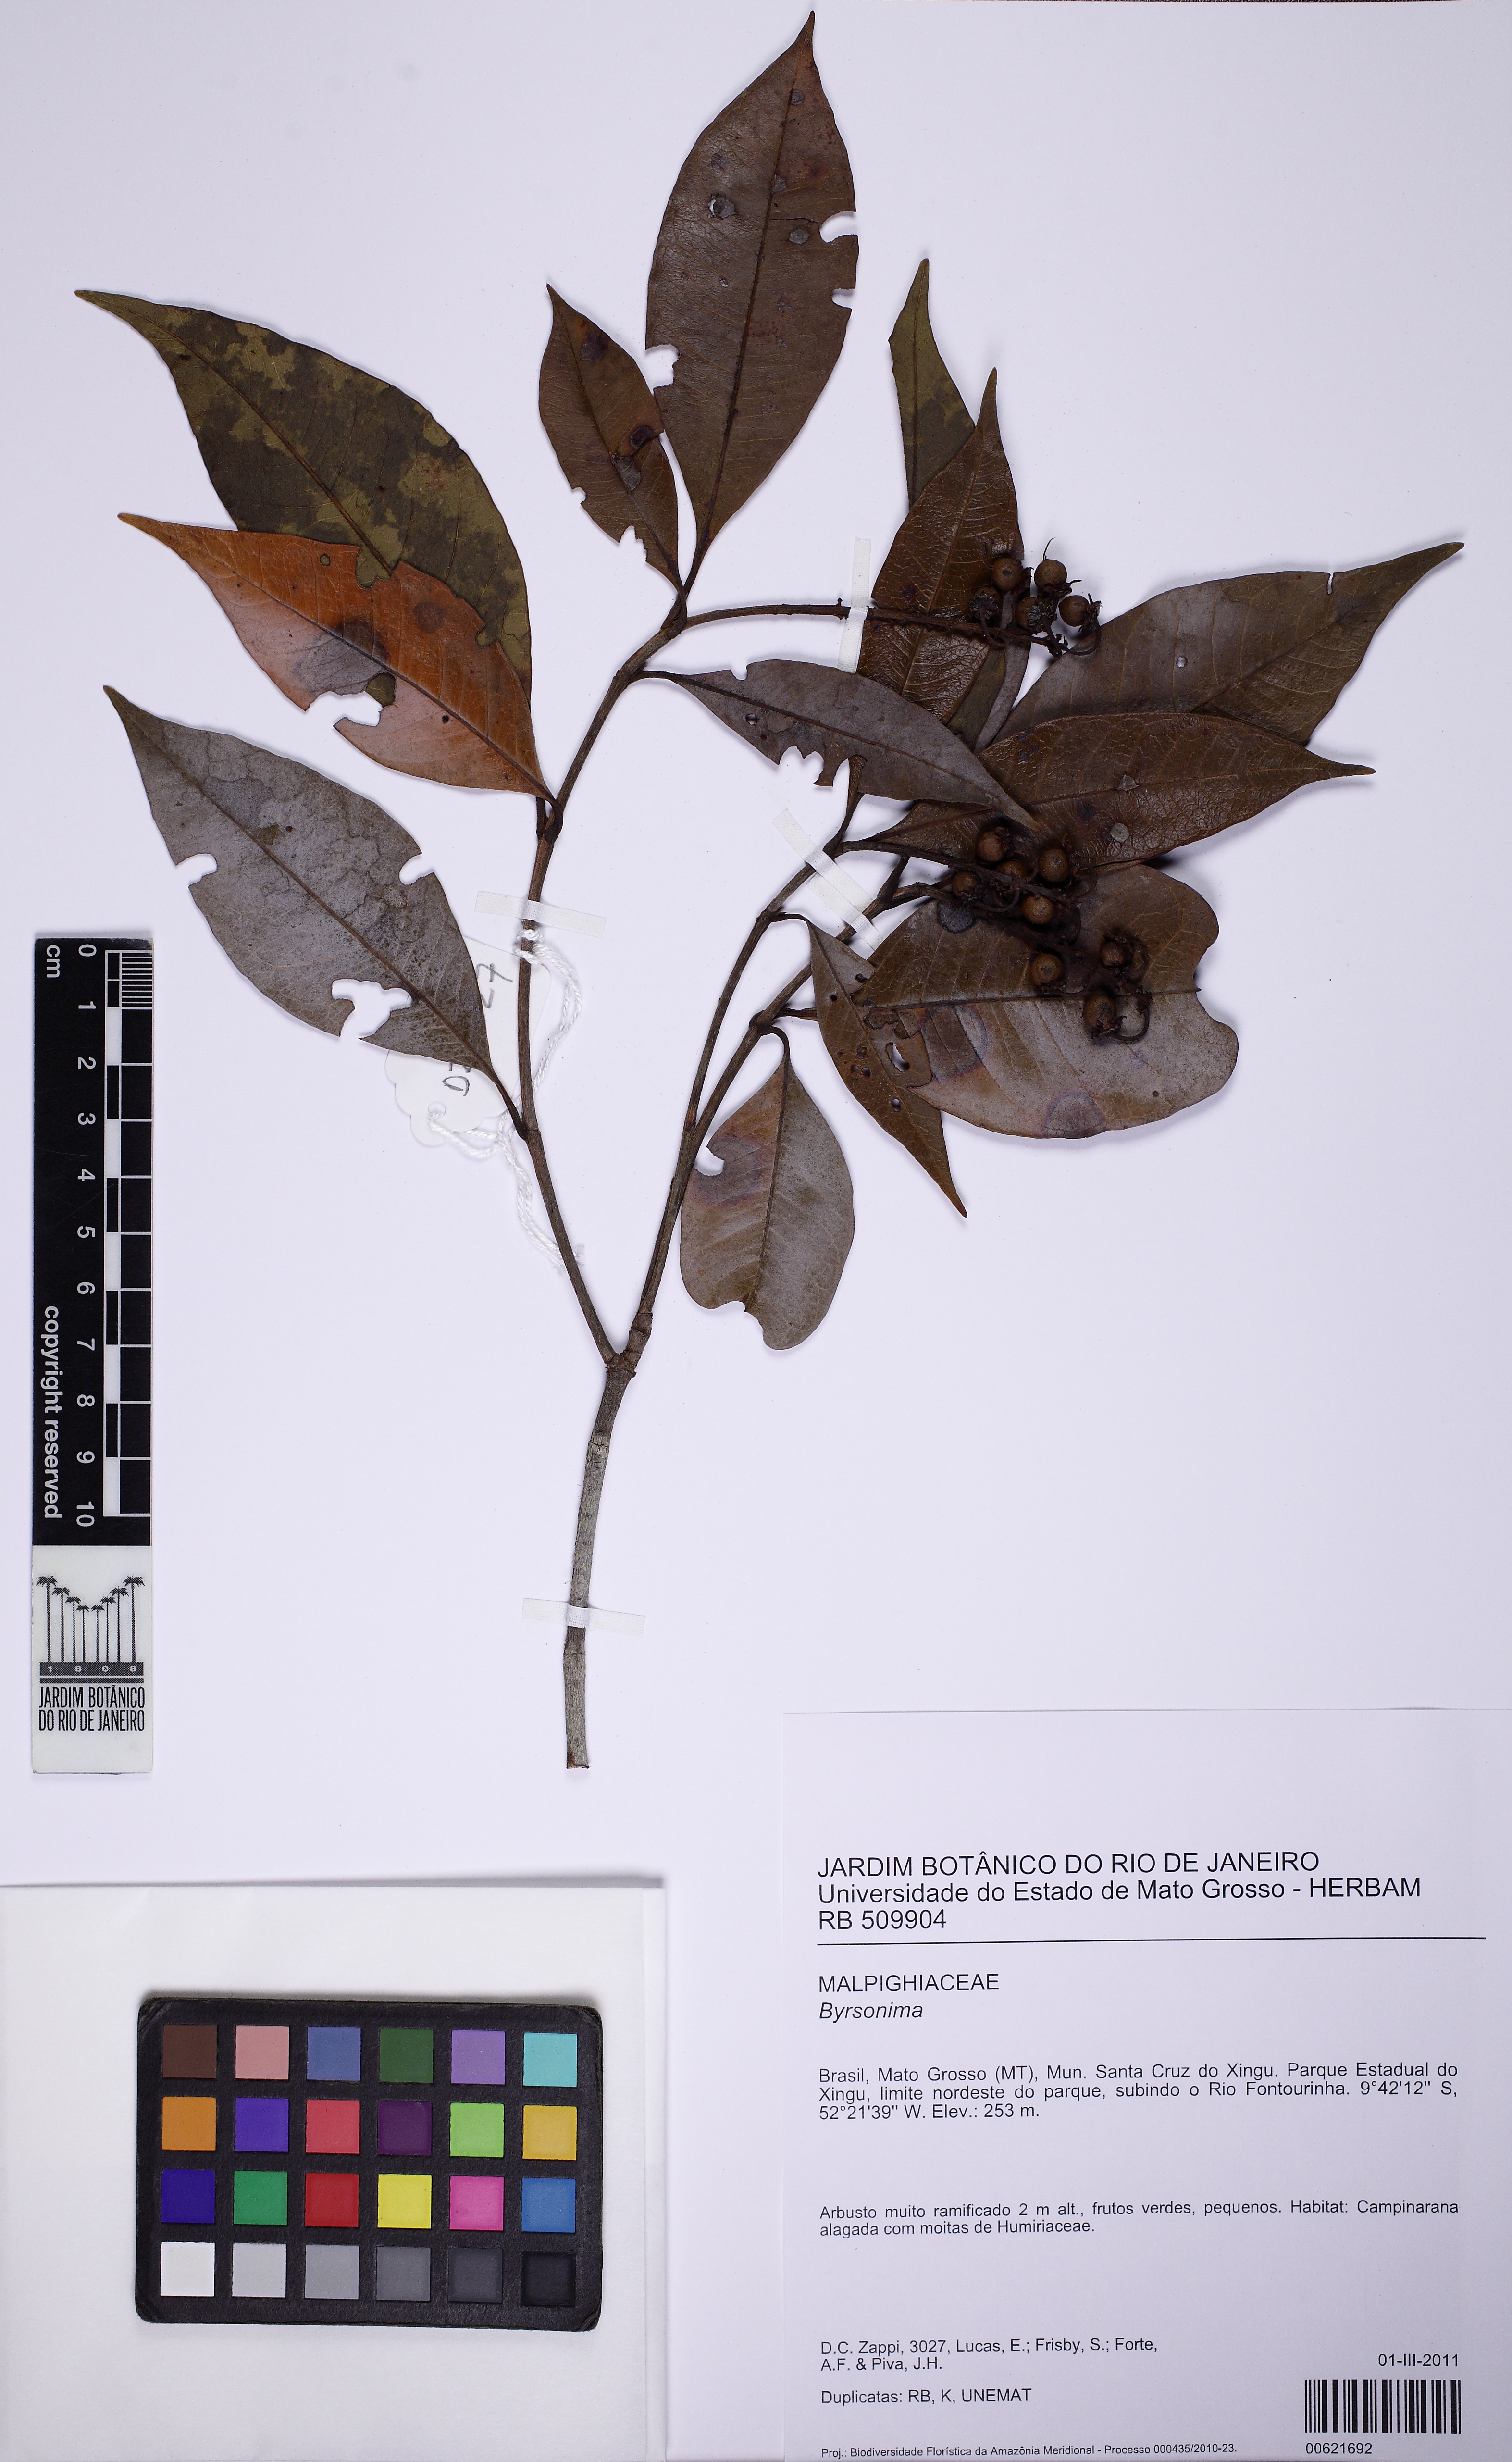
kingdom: Plantae
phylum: Tracheophyta
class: Magnoliopsida
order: Malpighiales
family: Malpighiaceae
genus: Byrsonima
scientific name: Byrsonima
